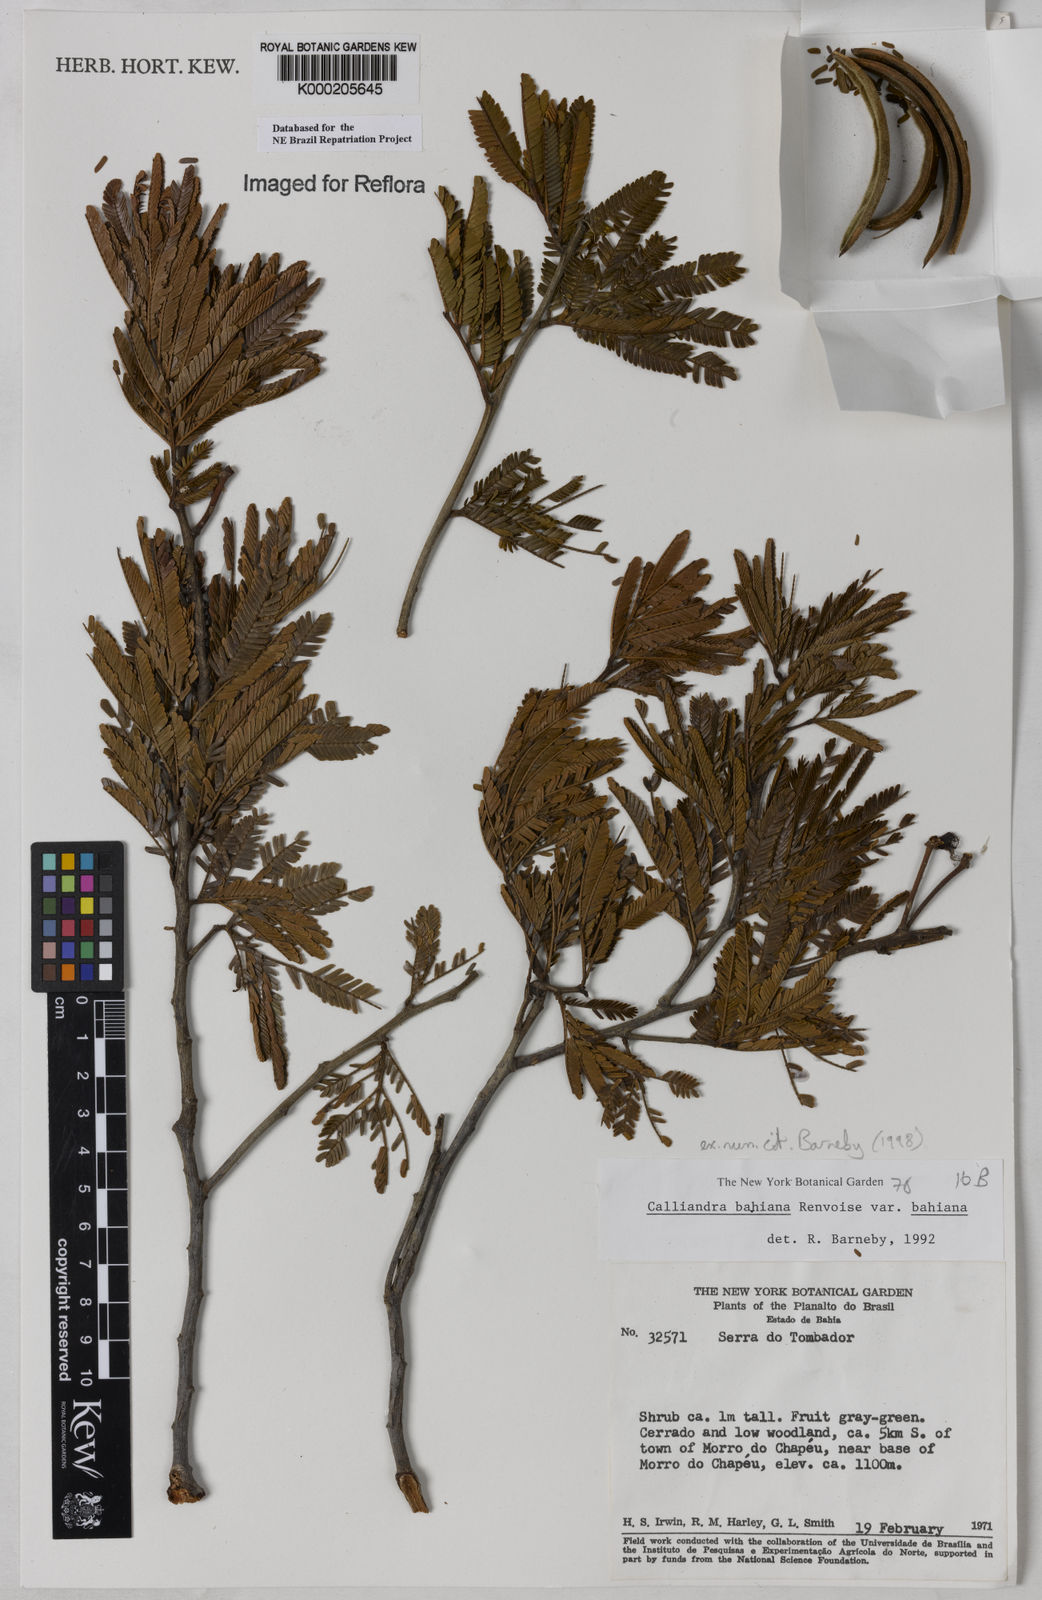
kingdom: Plantae
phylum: Tracheophyta
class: Magnoliopsida
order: Fabales
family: Fabaceae
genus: Calliandra
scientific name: Calliandra bahiana
